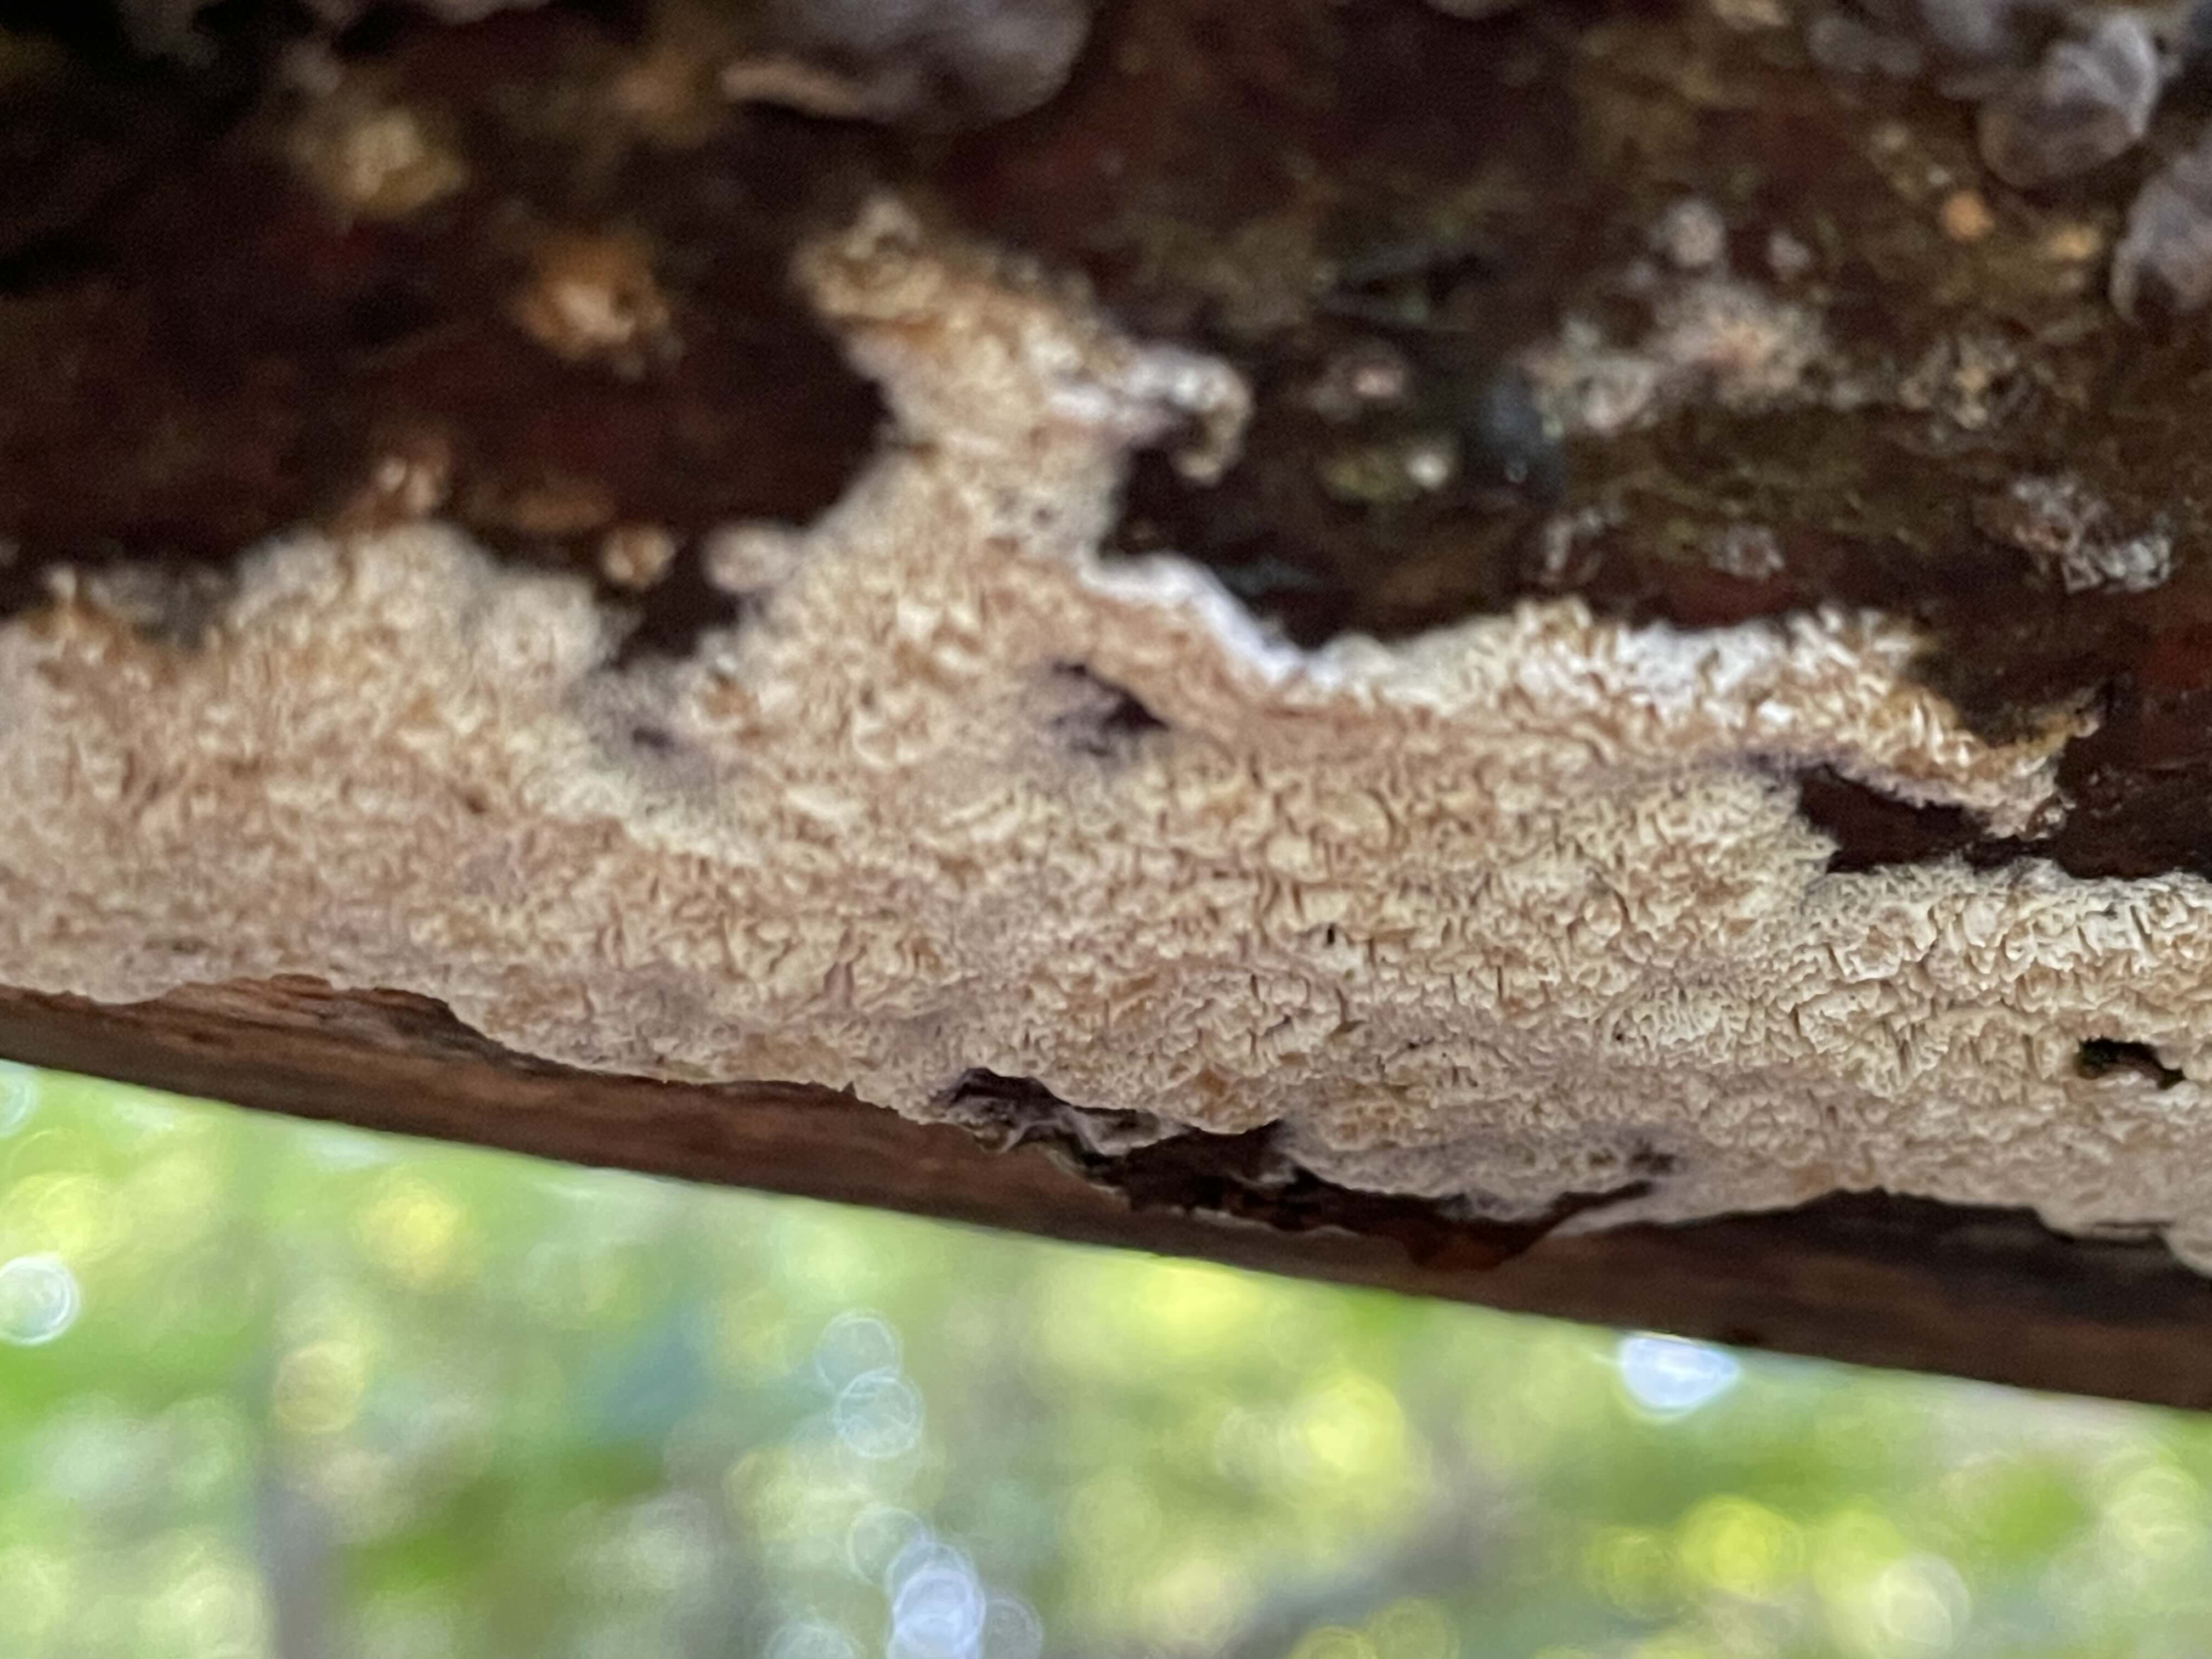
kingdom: Fungi
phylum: Basidiomycota
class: Agaricomycetes
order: Hymenochaetales
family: Schizoporaceae
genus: Xylodon
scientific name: Xylodon subtropicus
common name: labyrint-tandsvamp
